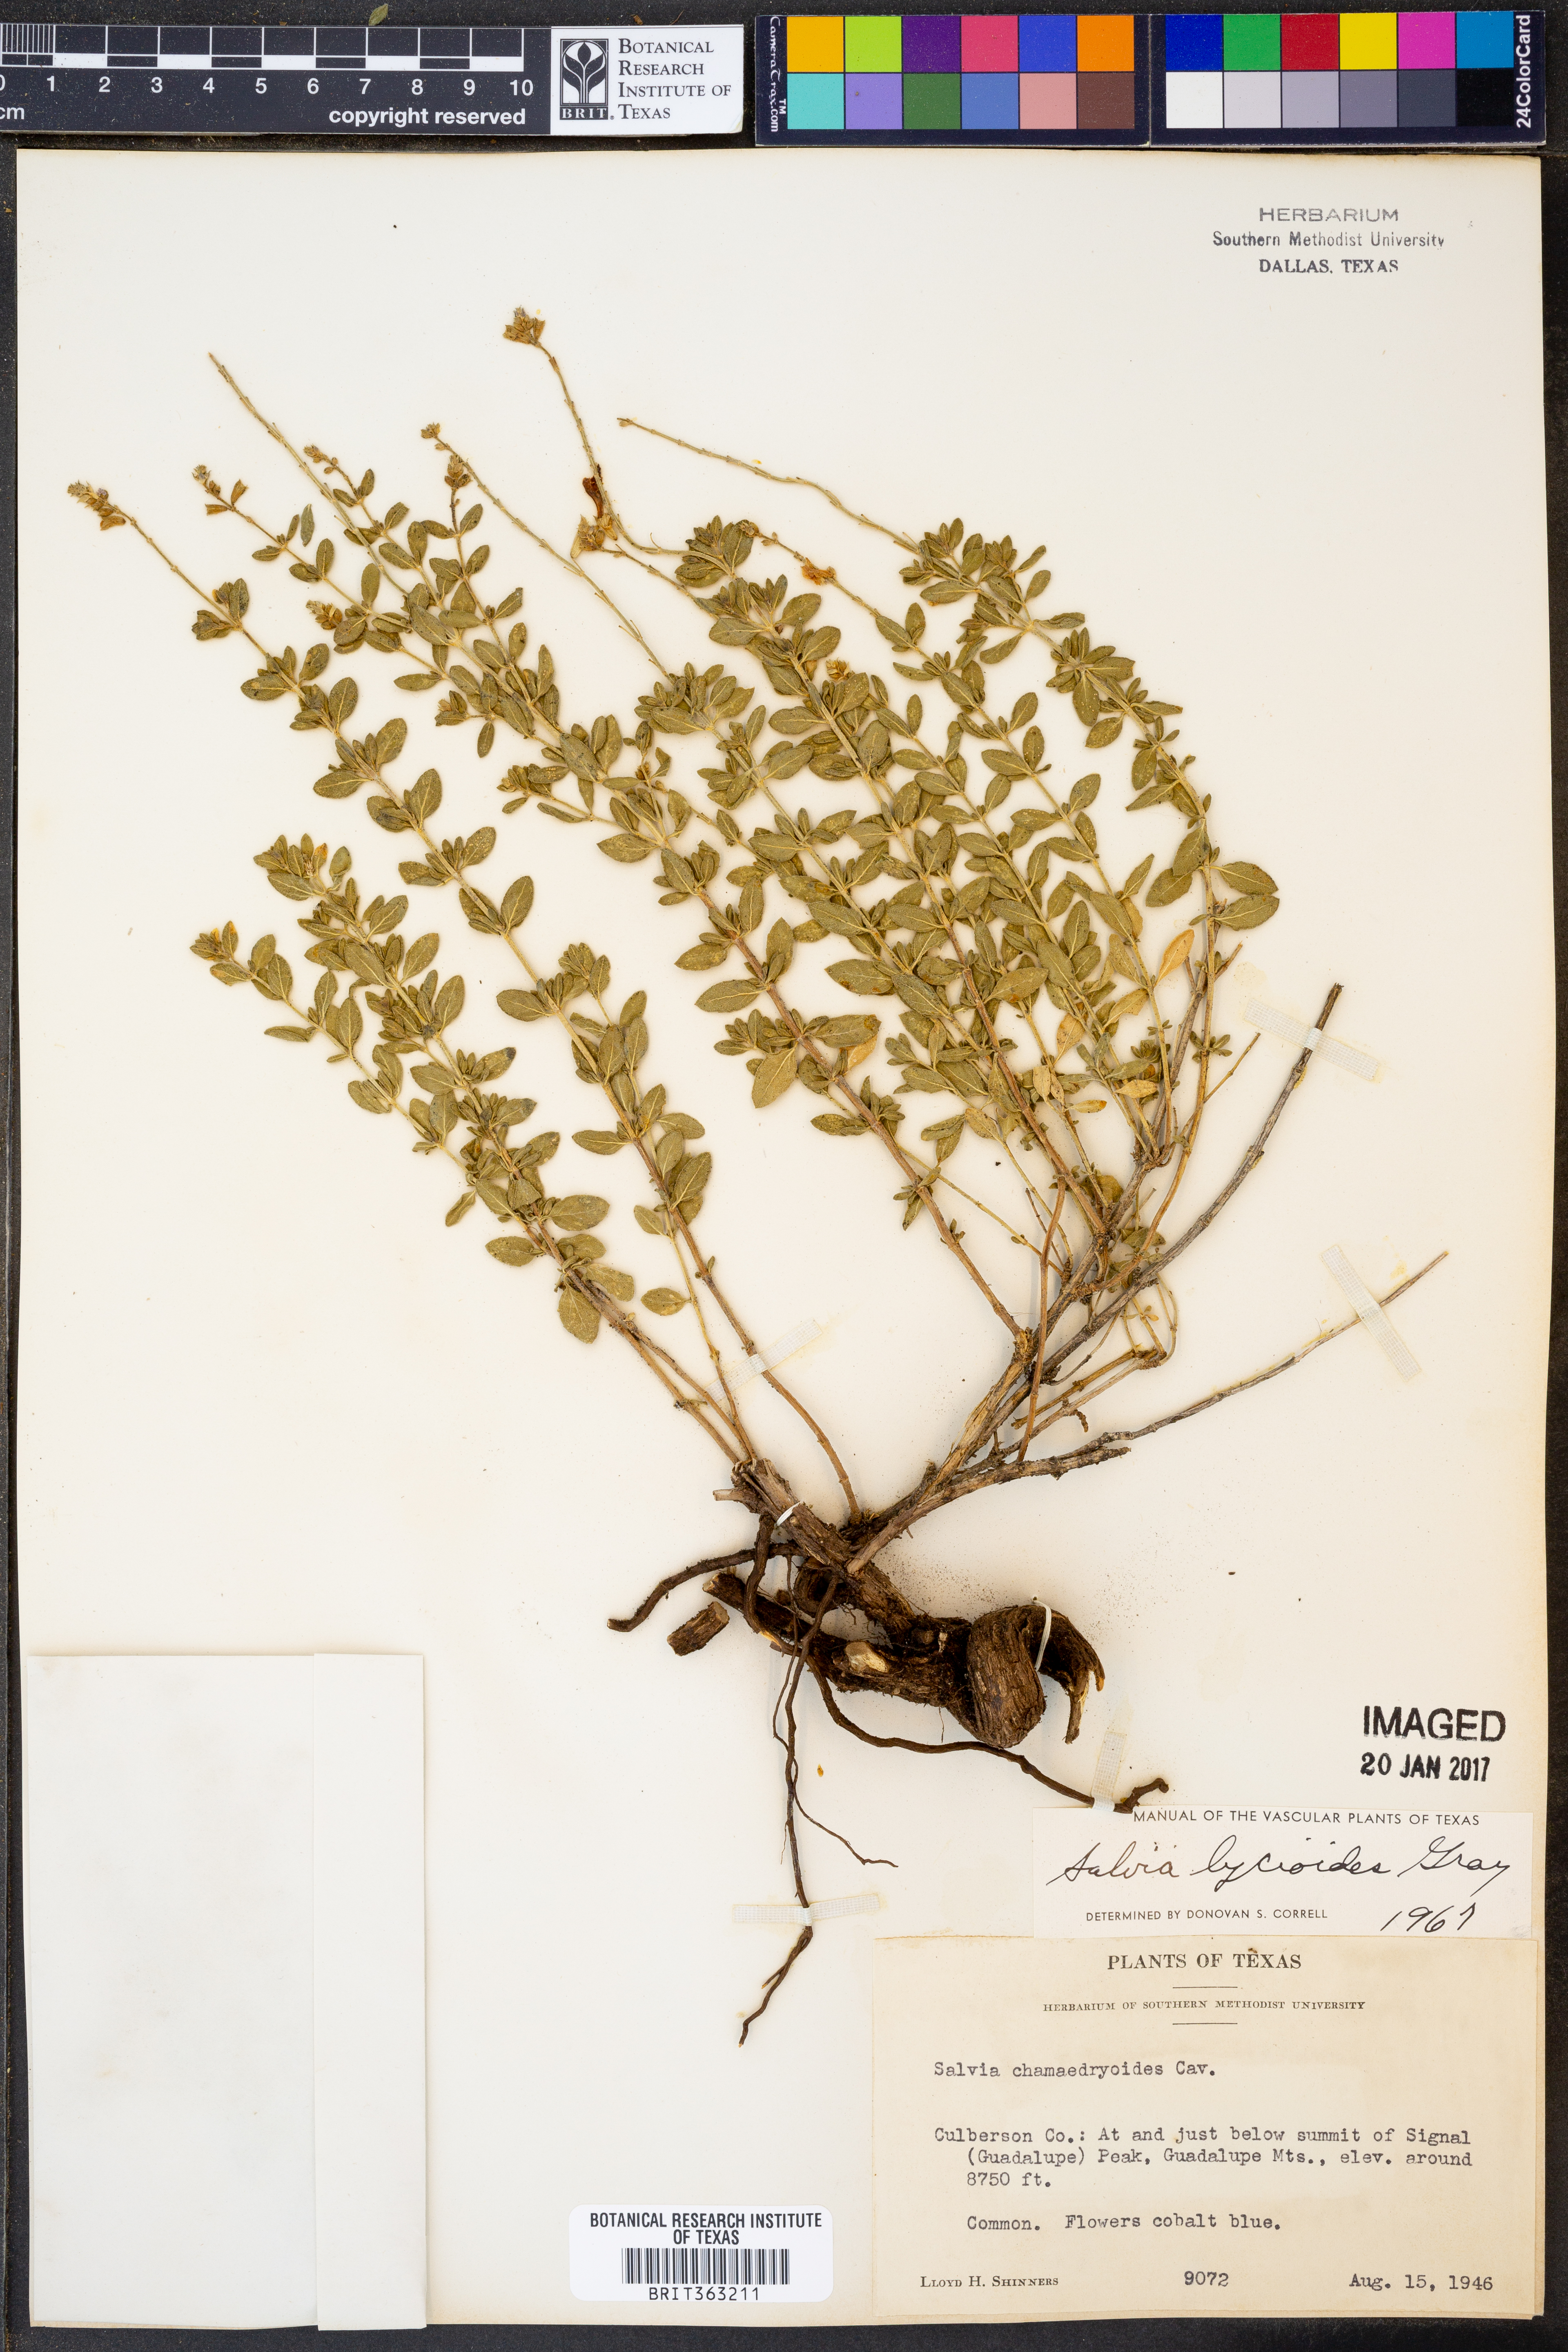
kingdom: Plantae
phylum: Tracheophyta
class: Magnoliopsida
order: Lamiales
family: Lamiaceae
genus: Salvia
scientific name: Salvia lycioides
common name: Canyon sage
